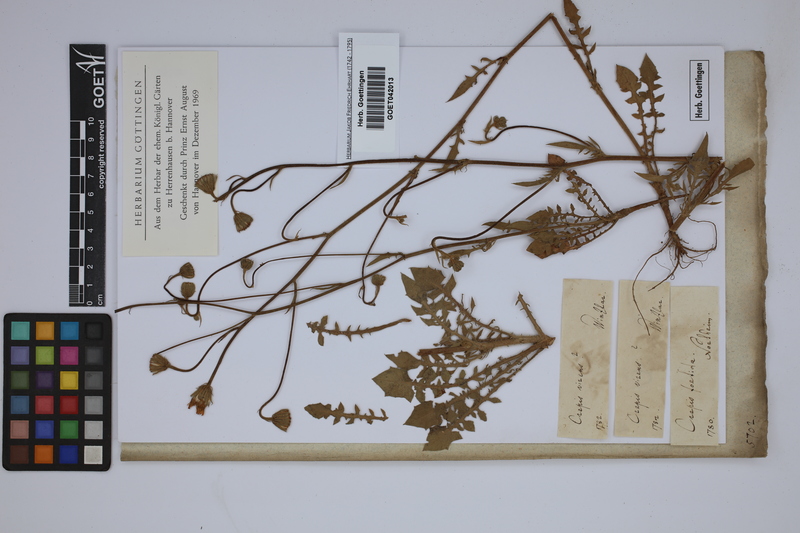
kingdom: Plantae
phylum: Tracheophyta
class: Magnoliopsida
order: Asterales
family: Asteraceae
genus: Crepis
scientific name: Crepis capillaris
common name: Smooth hawksbeard
